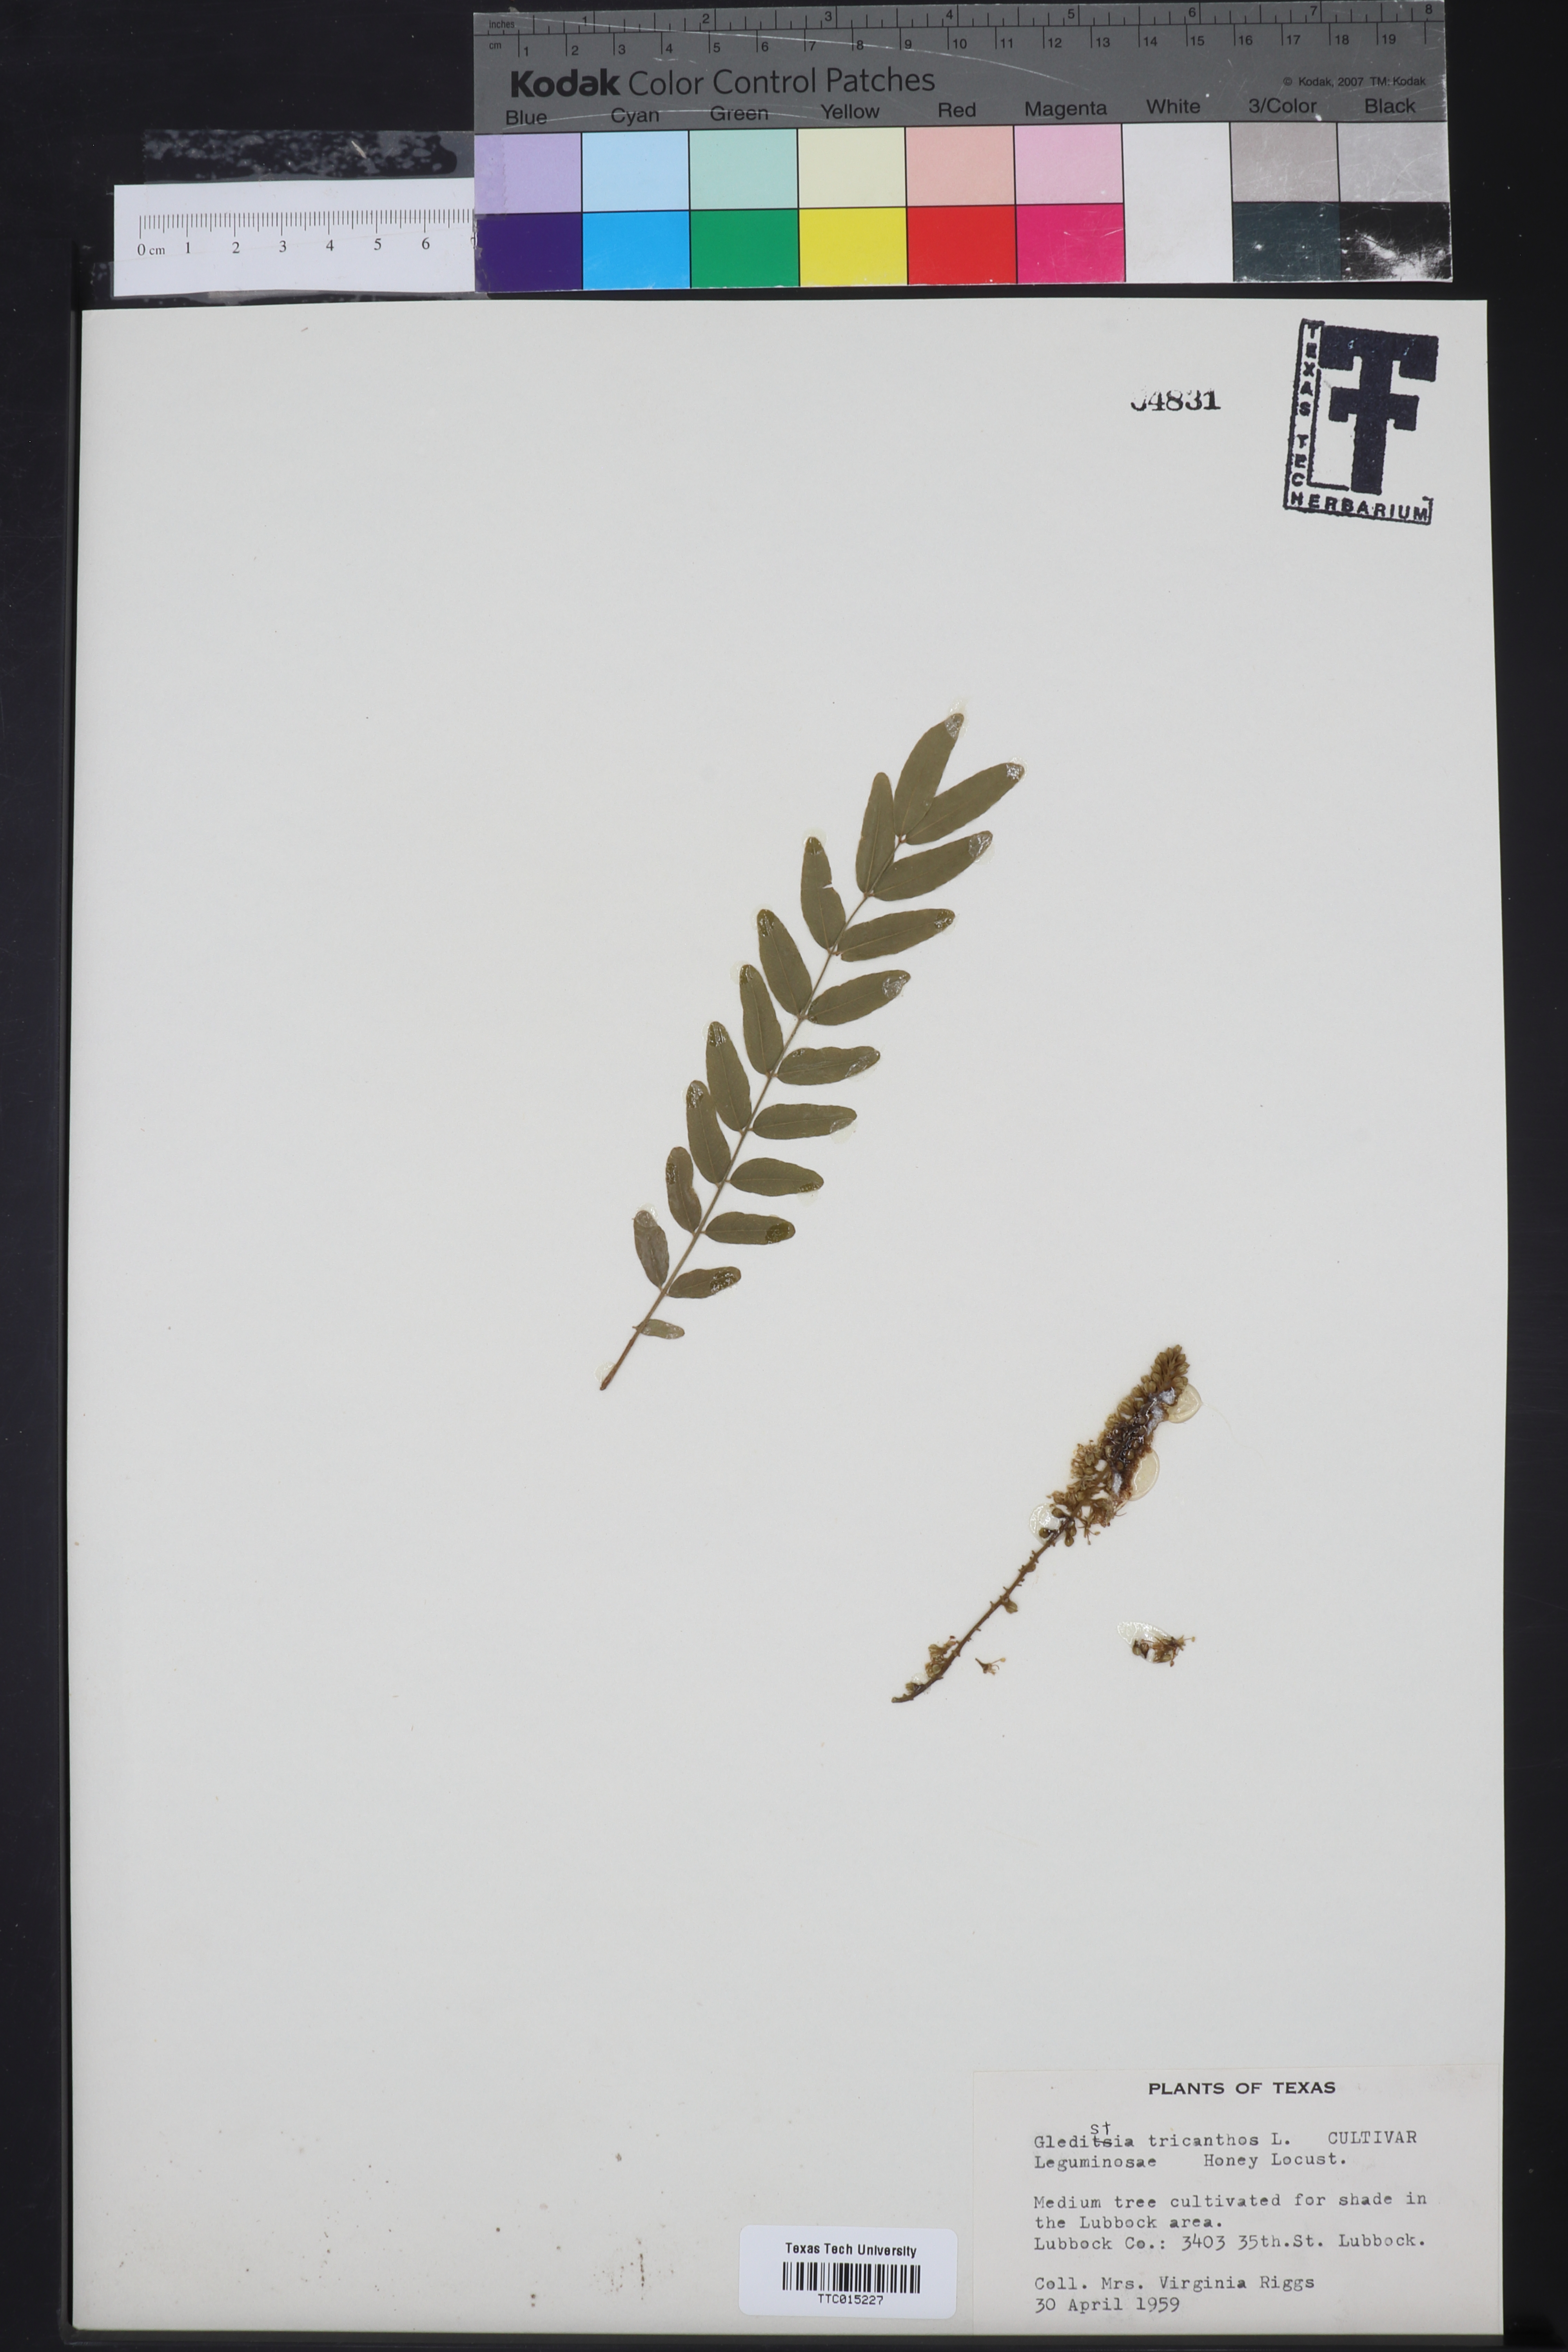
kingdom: Plantae
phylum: Tracheophyta
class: Magnoliopsida
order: Fabales
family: Fabaceae
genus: Gleditsia
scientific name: Gleditsia triacanthos
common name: Common honeylocust
